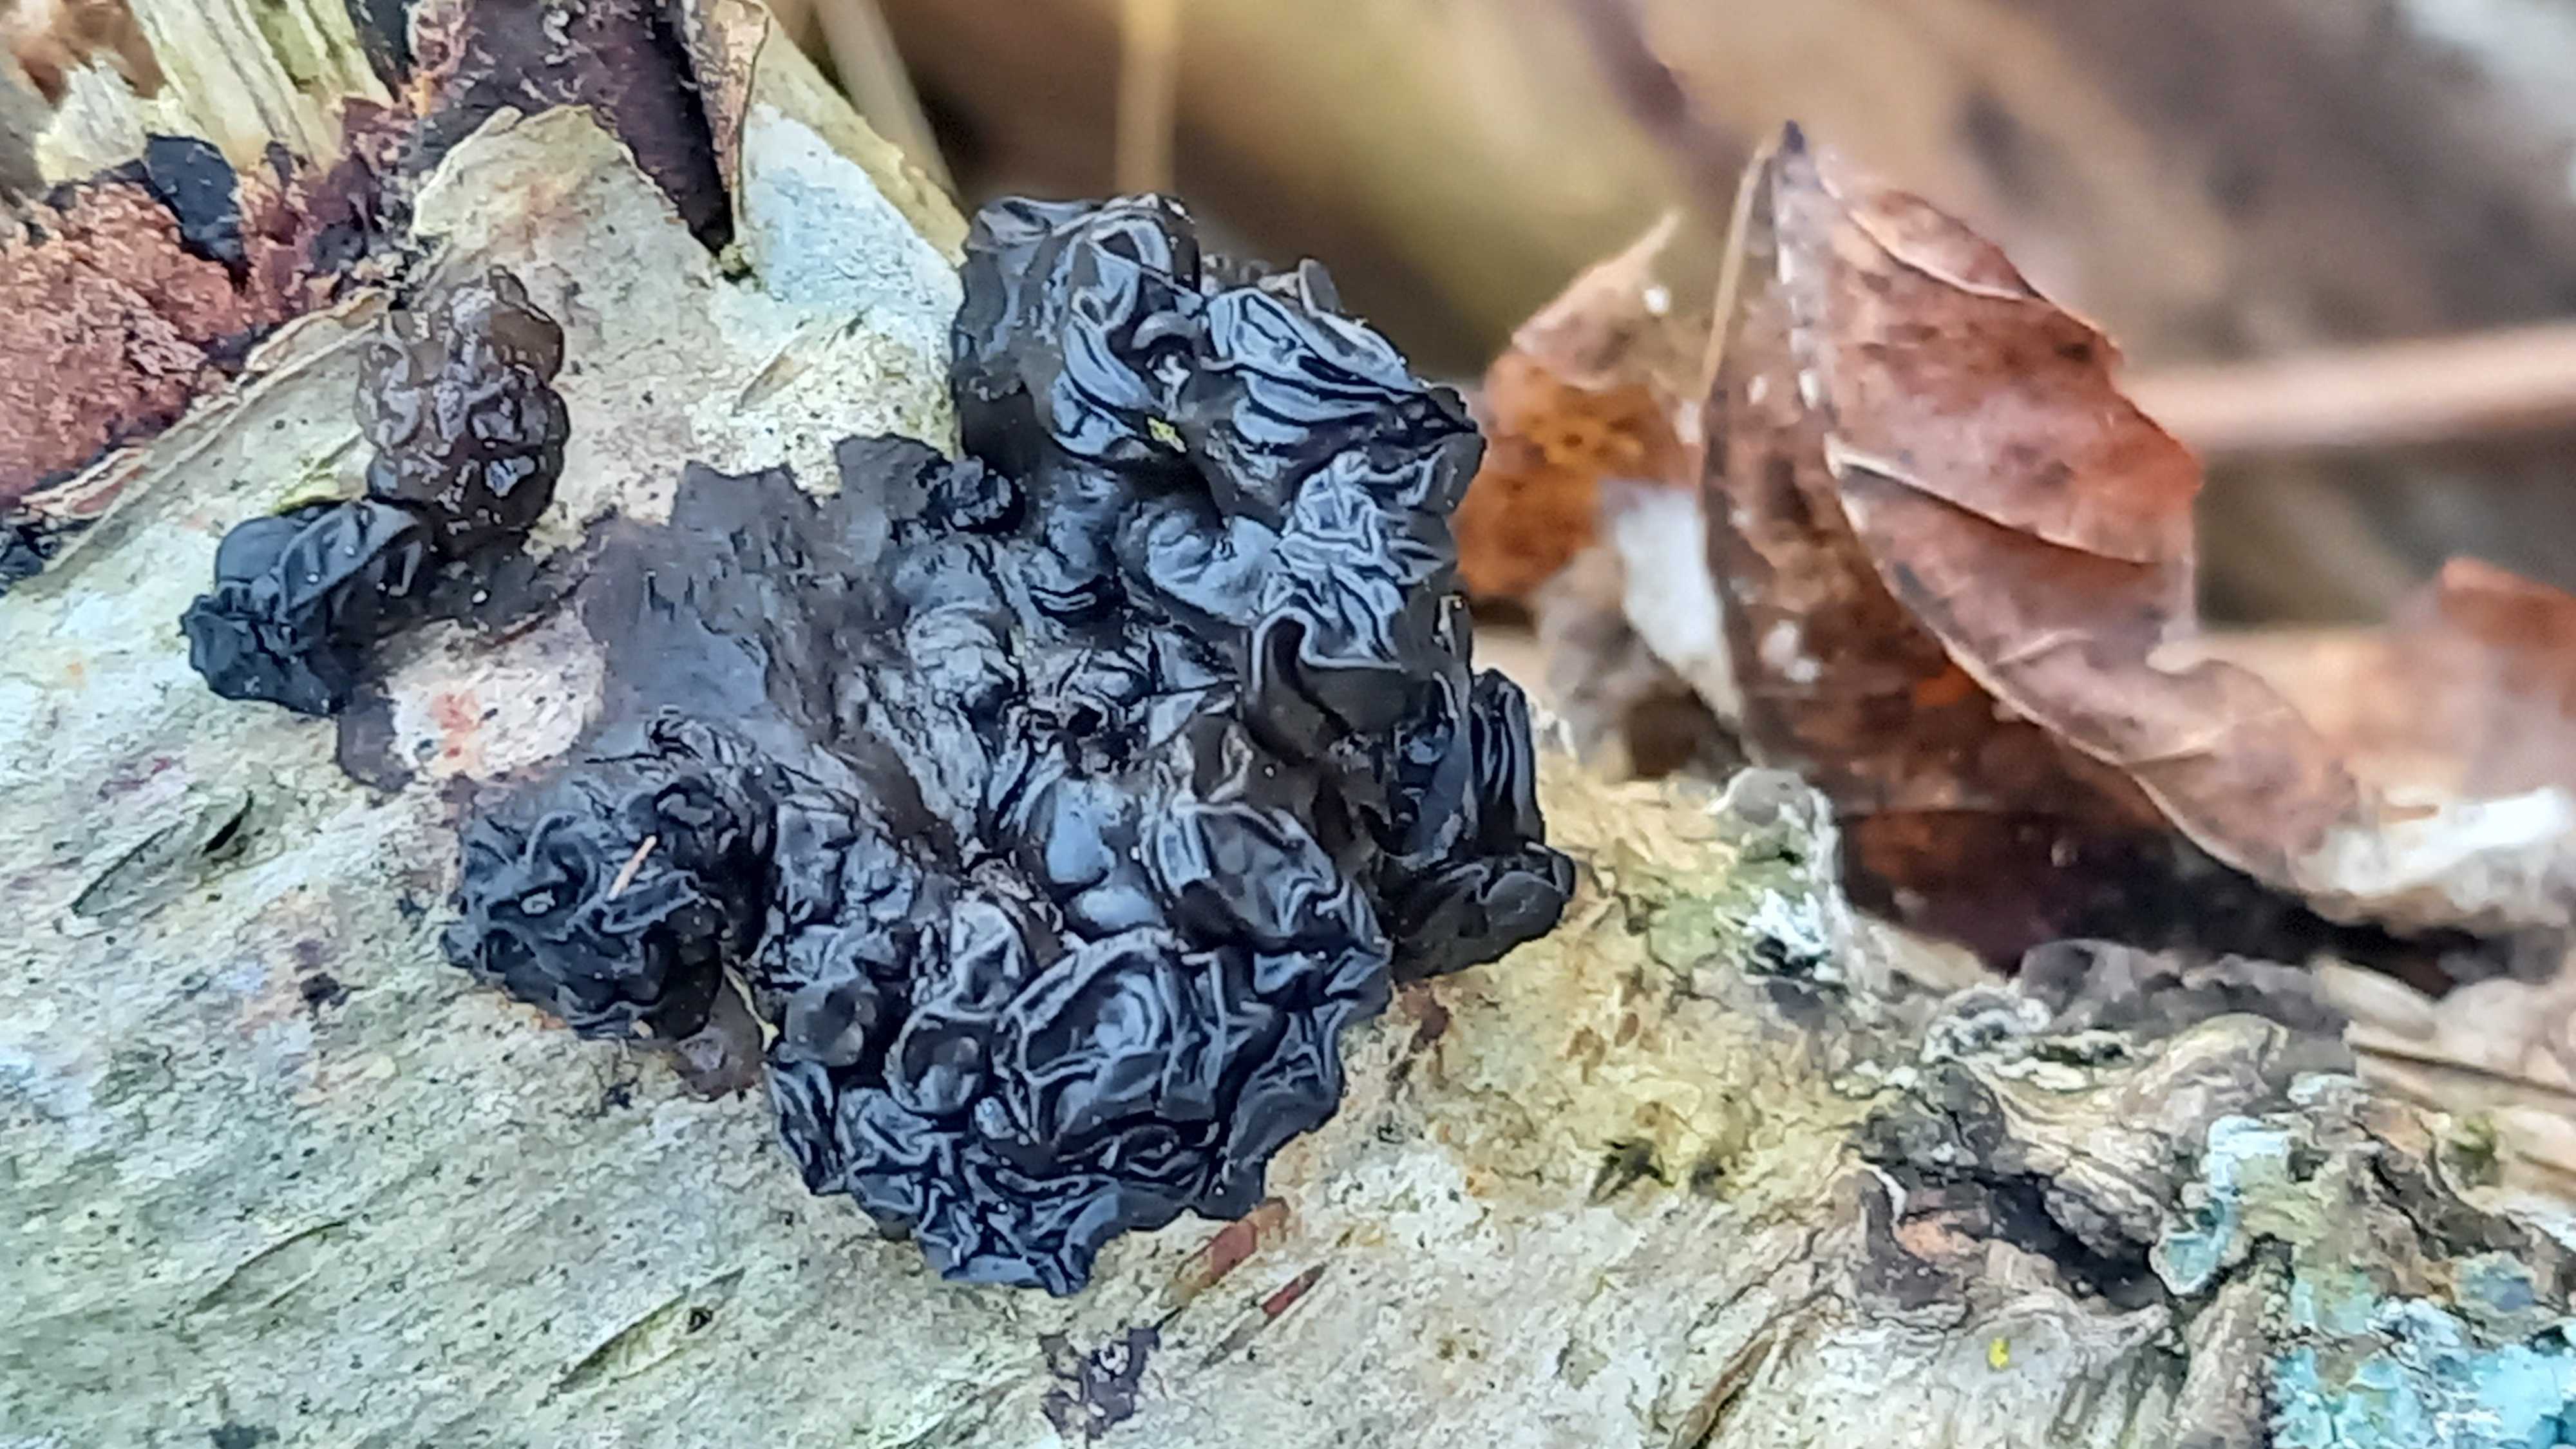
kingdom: Fungi
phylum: Basidiomycota
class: Agaricomycetes
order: Auriculariales
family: Auriculariaceae
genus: Exidia
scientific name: Exidia nigricans
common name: almindelig bævretop
